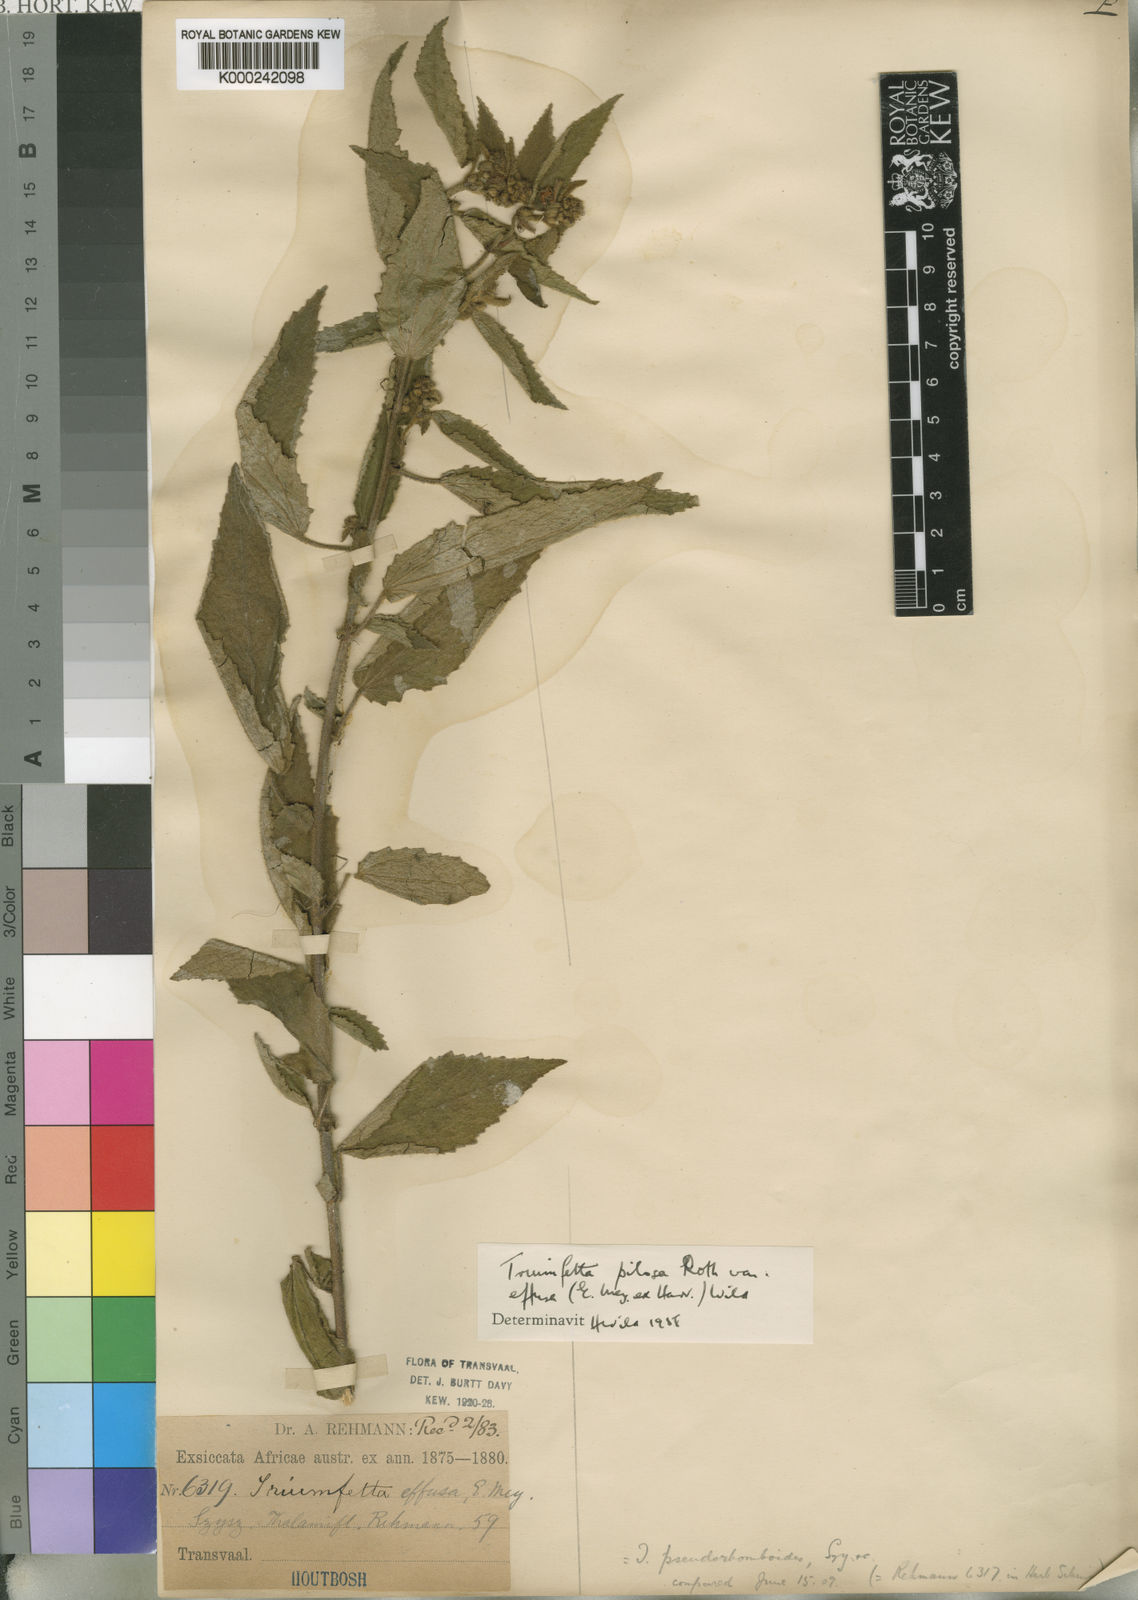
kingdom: Plantae
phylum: Tracheophyta
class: Magnoliopsida
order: Malvales
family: Malvaceae
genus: Triumfetta
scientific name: Triumfetta pilosa
